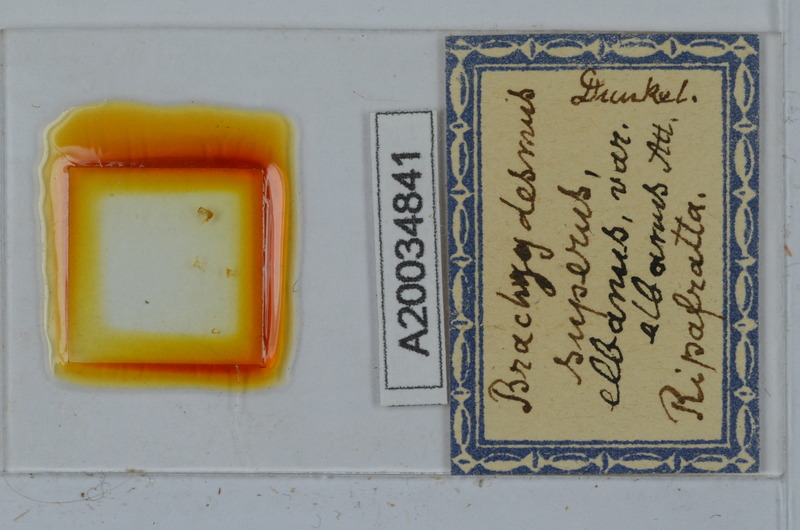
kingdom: Animalia
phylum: Arthropoda
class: Diplopoda
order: Polydesmida
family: Polydesmidae
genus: Brachydesmus
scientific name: Brachydesmus superus
